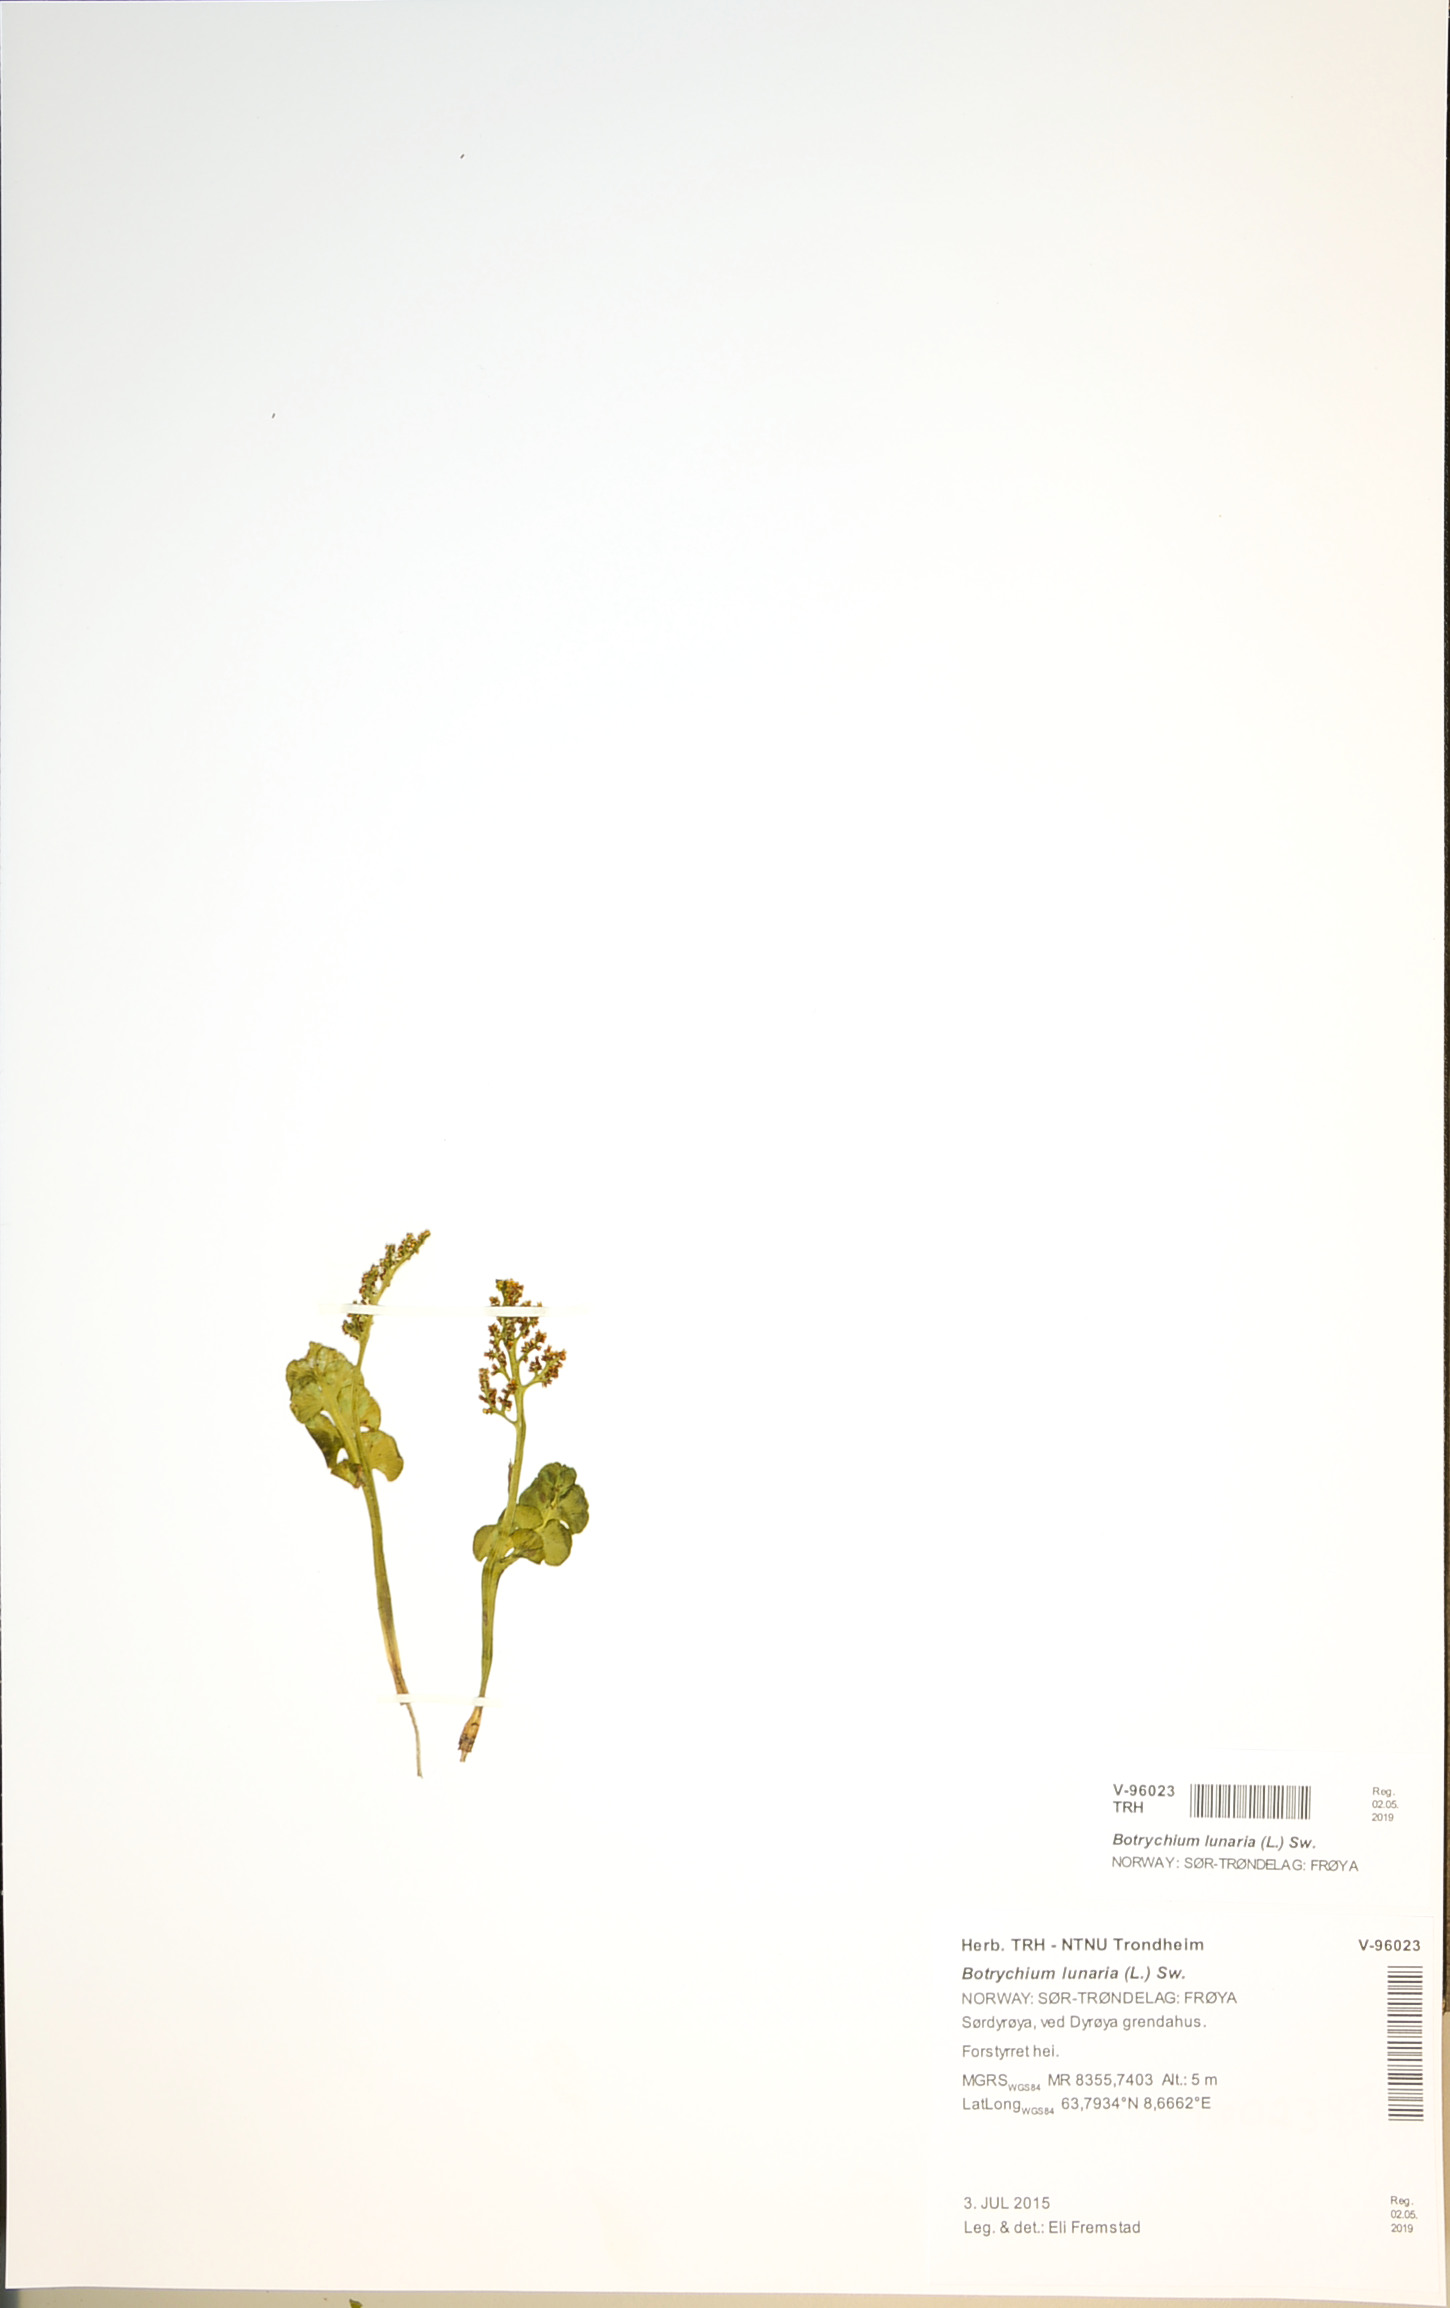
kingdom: Plantae
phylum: Tracheophyta
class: Polypodiopsida
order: Ophioglossales
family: Ophioglossaceae
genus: Botrychium
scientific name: Botrychium lunaria
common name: Moonwort
